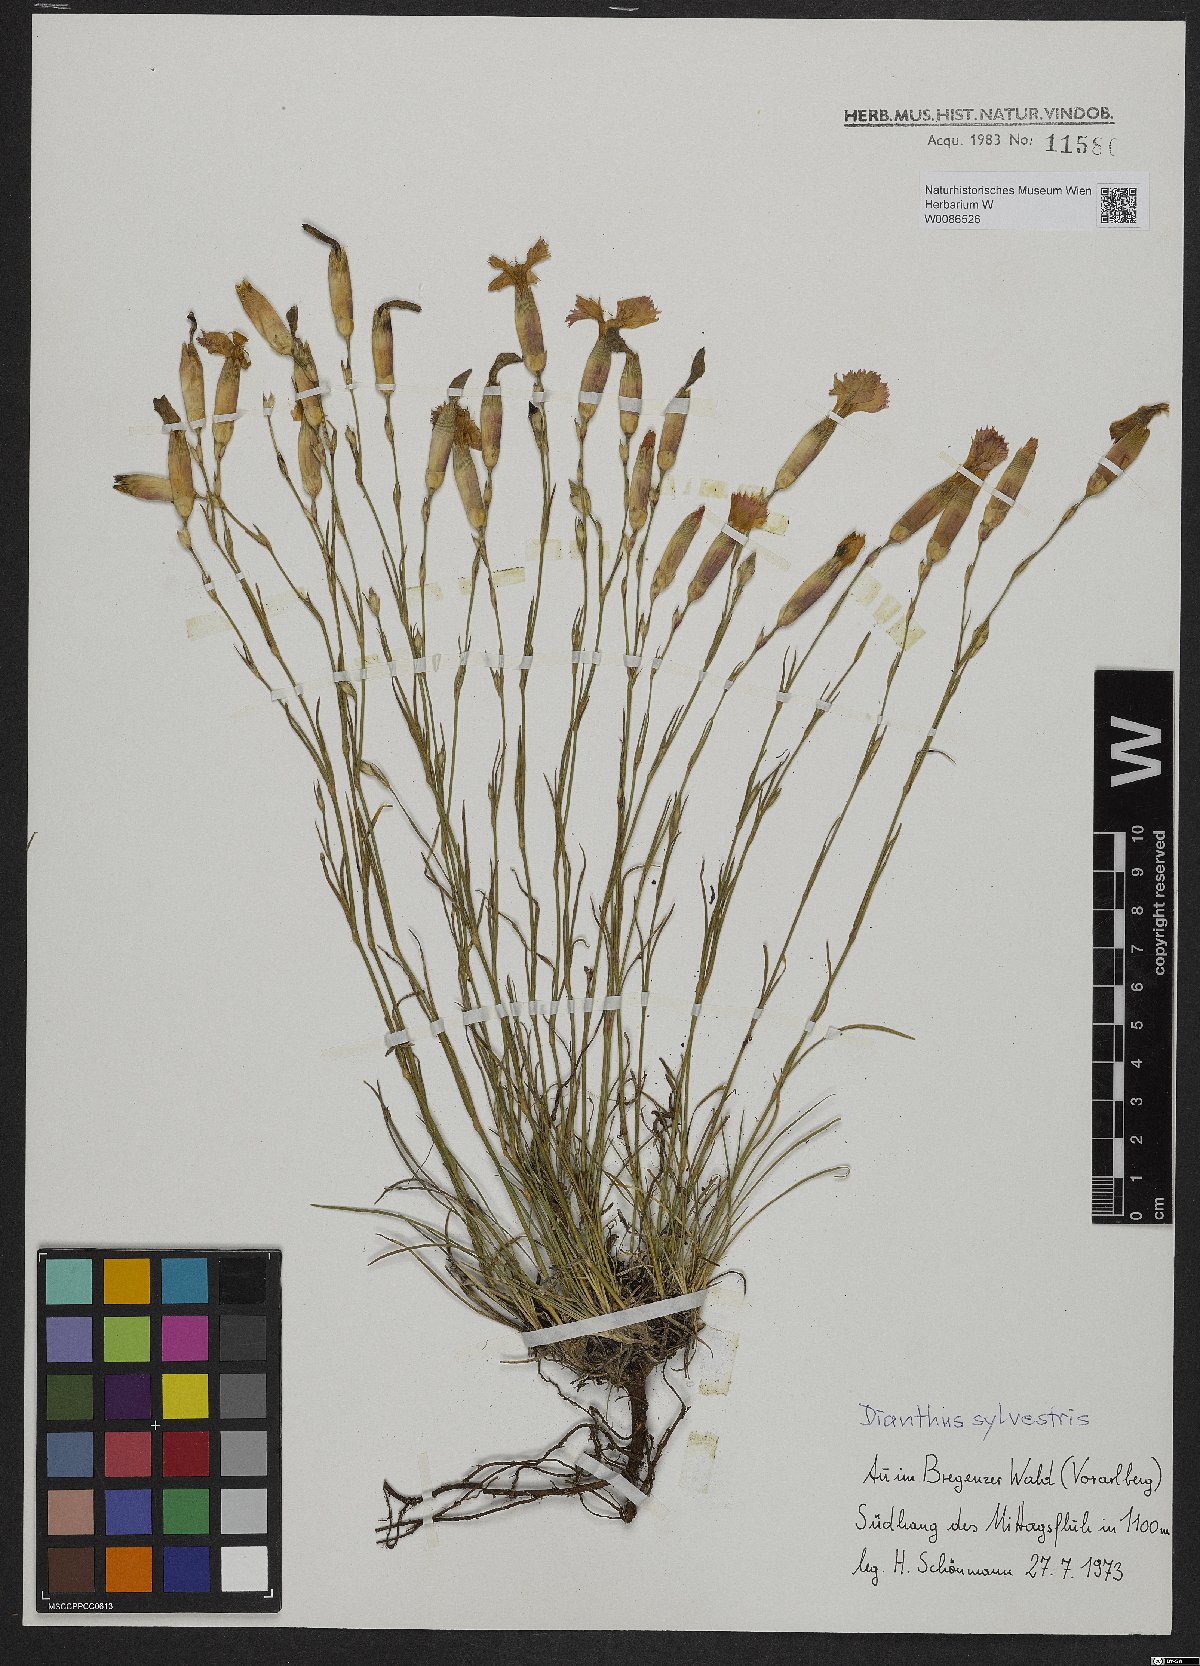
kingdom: Plantae
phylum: Tracheophyta
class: Magnoliopsida
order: Caryophyllales
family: Caryophyllaceae
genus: Dianthus
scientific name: Dianthus sylvestris
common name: Wood pink
